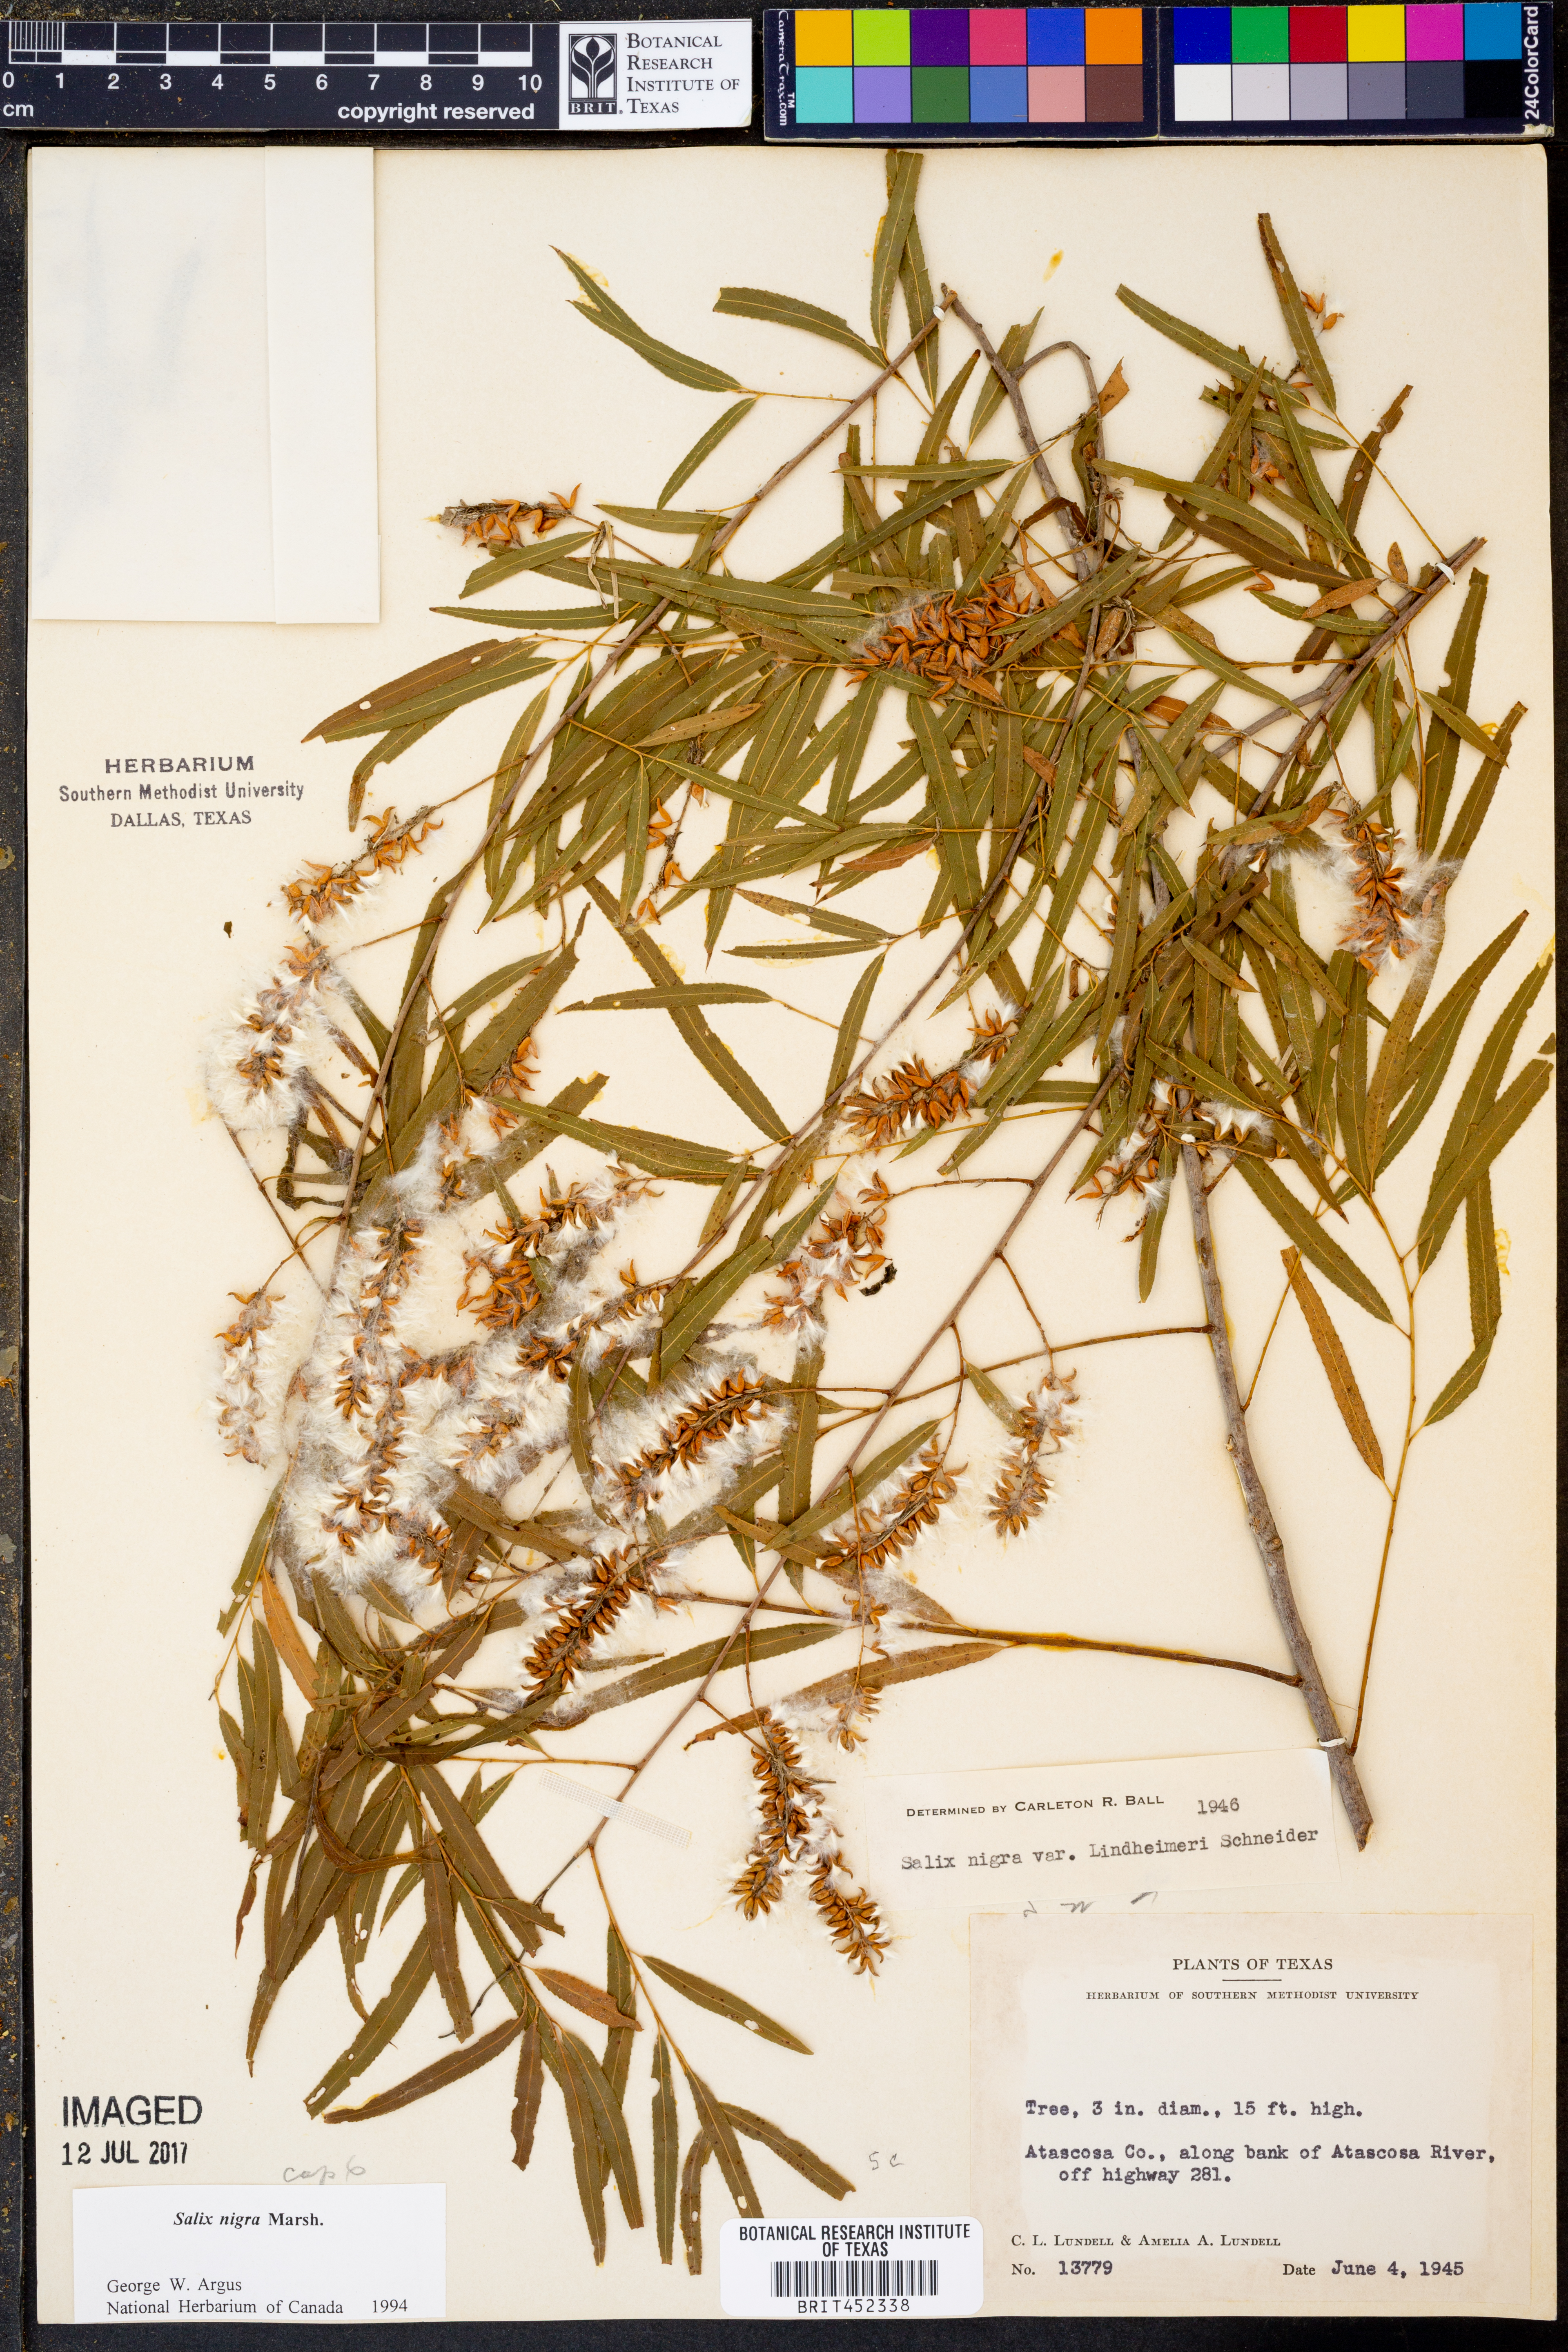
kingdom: Plantae
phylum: Tracheophyta
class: Magnoliopsida
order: Malpighiales
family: Salicaceae
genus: Salix
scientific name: Salix nigra
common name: Black willow
